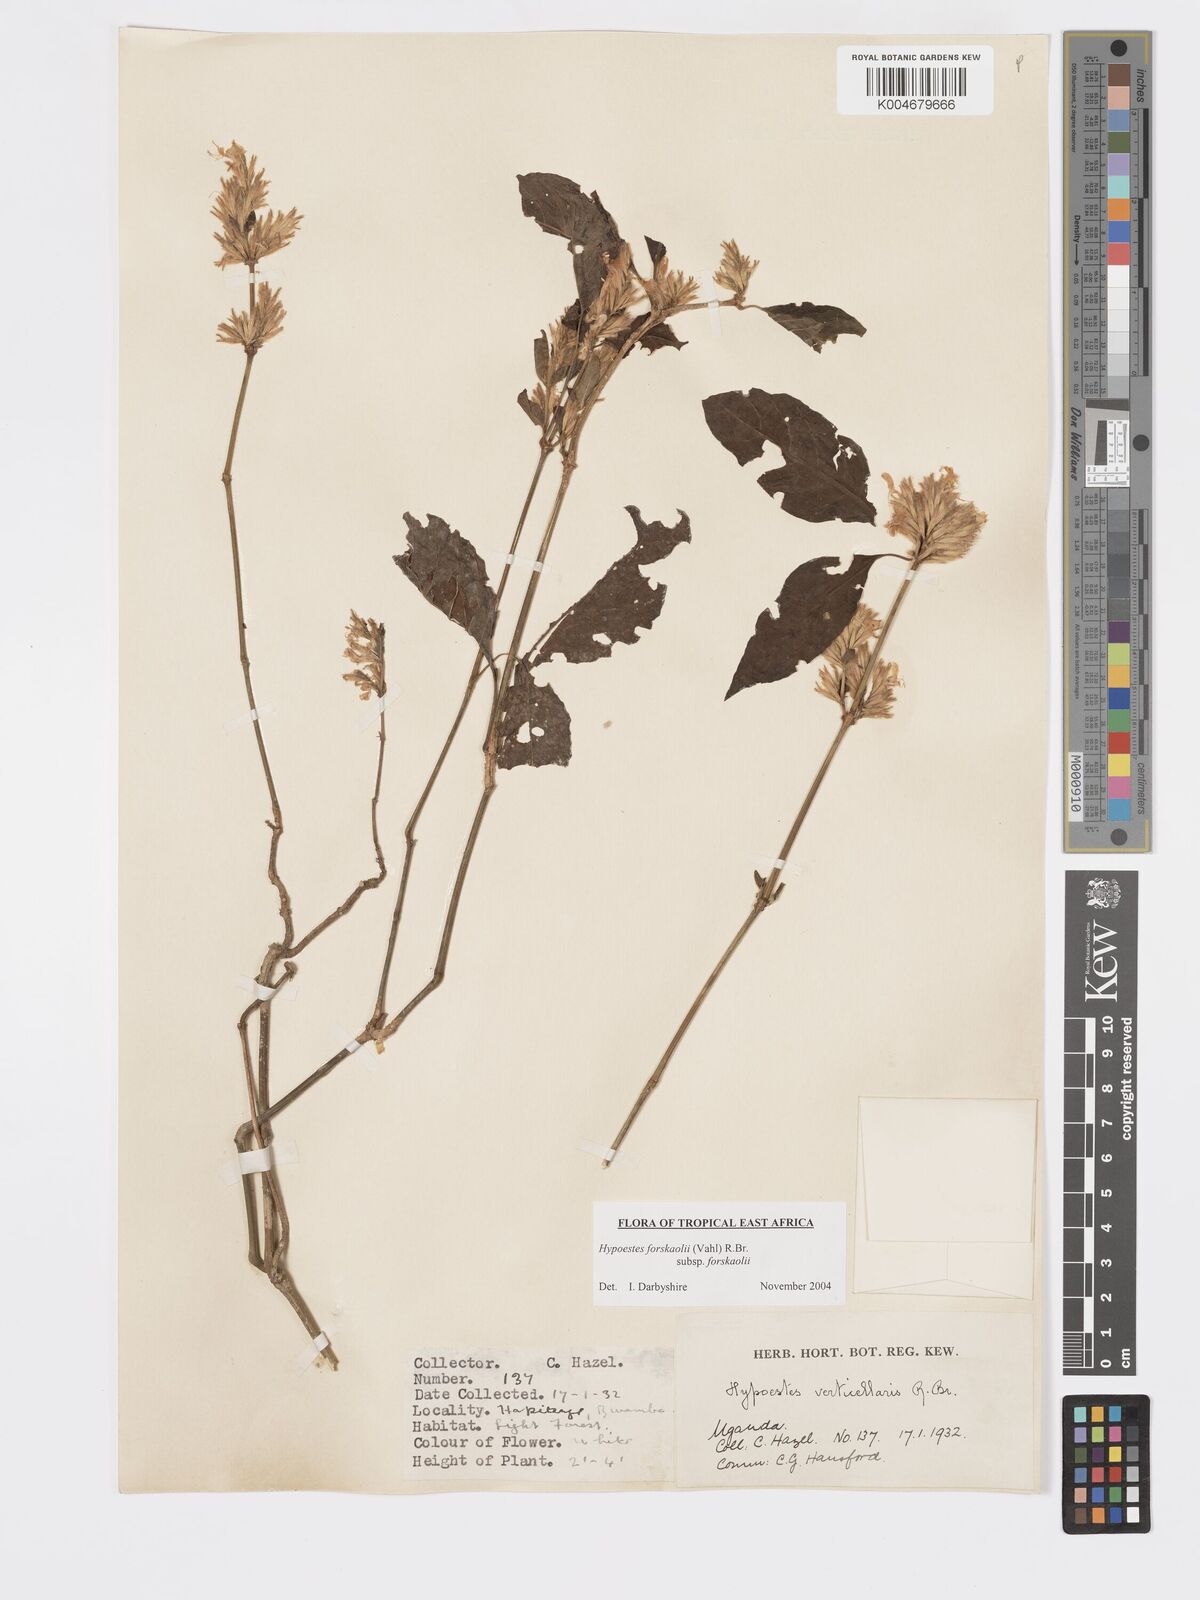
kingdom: Plantae
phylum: Tracheophyta
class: Magnoliopsida
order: Lamiales
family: Acanthaceae
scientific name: Acanthaceae
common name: Acanthaceae
